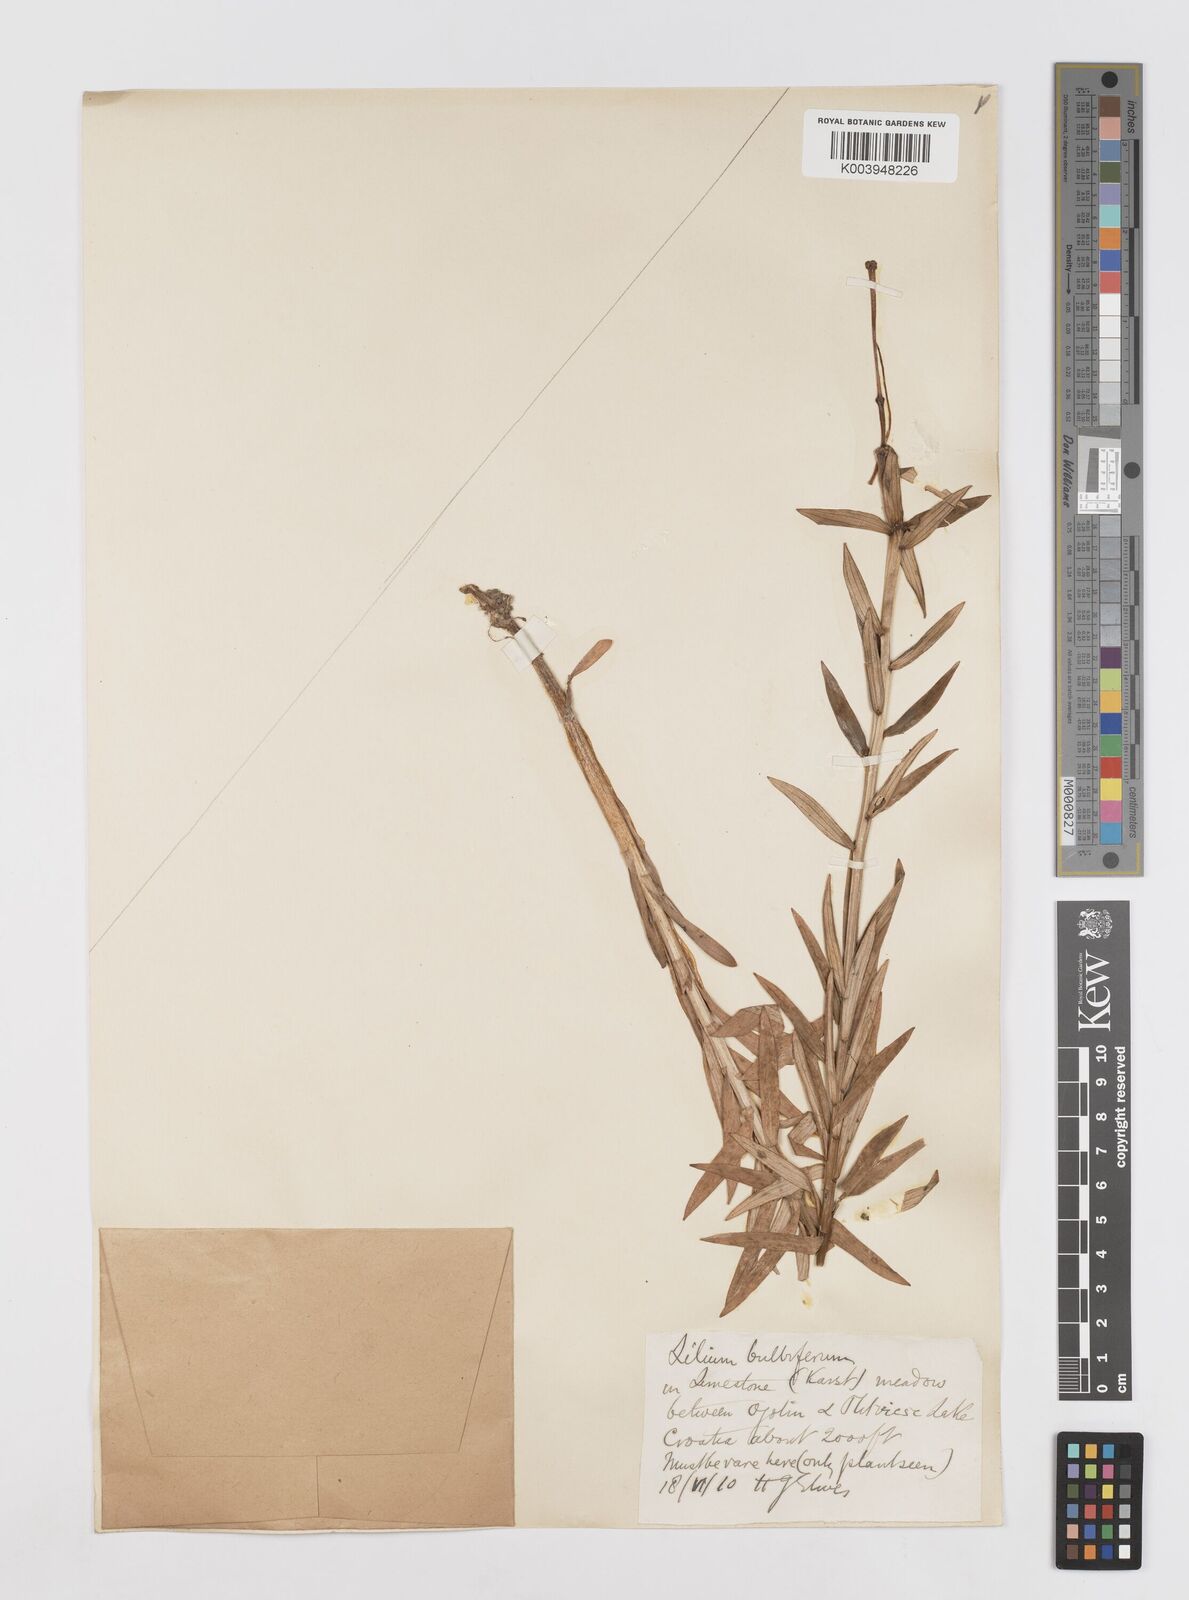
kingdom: Plantae
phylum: Tracheophyta
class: Liliopsida
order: Liliales
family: Liliaceae
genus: Lilium
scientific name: Lilium bulbiferum
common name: Orange lily
